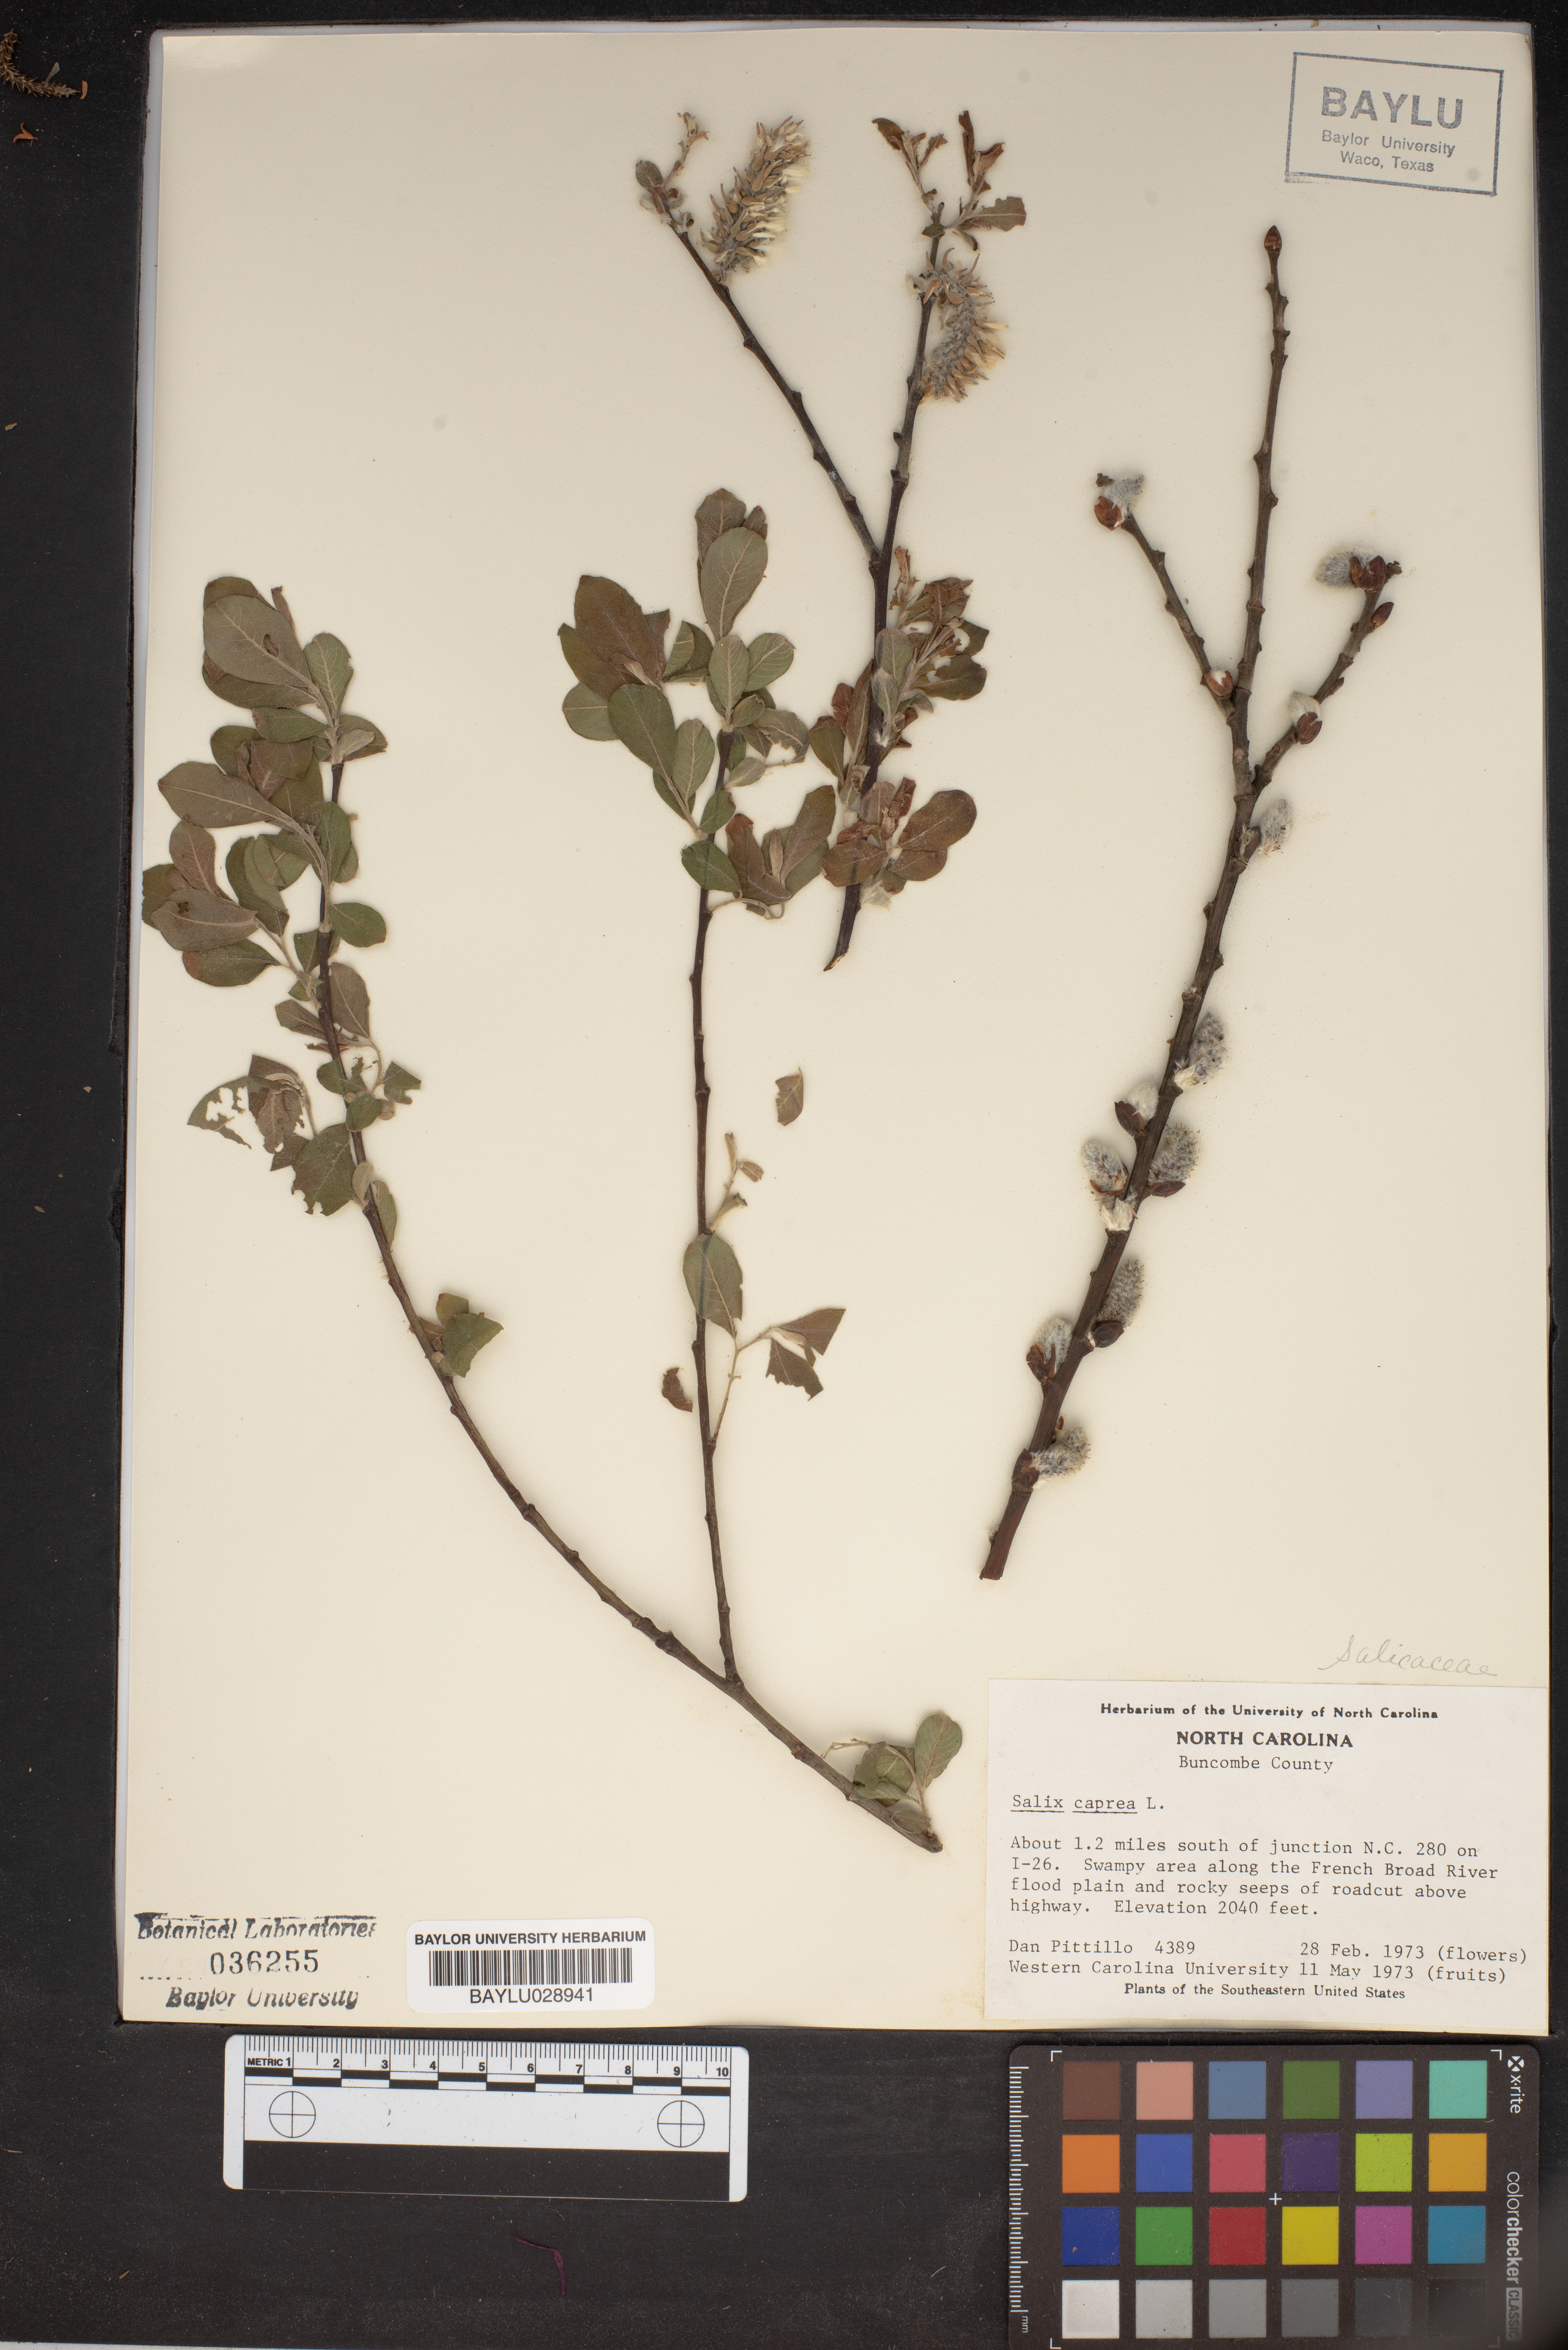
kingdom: Plantae
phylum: Tracheophyta
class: Magnoliopsida
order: Malpighiales
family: Salicaceae
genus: Salix
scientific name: Salix caprea
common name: Goat willow
